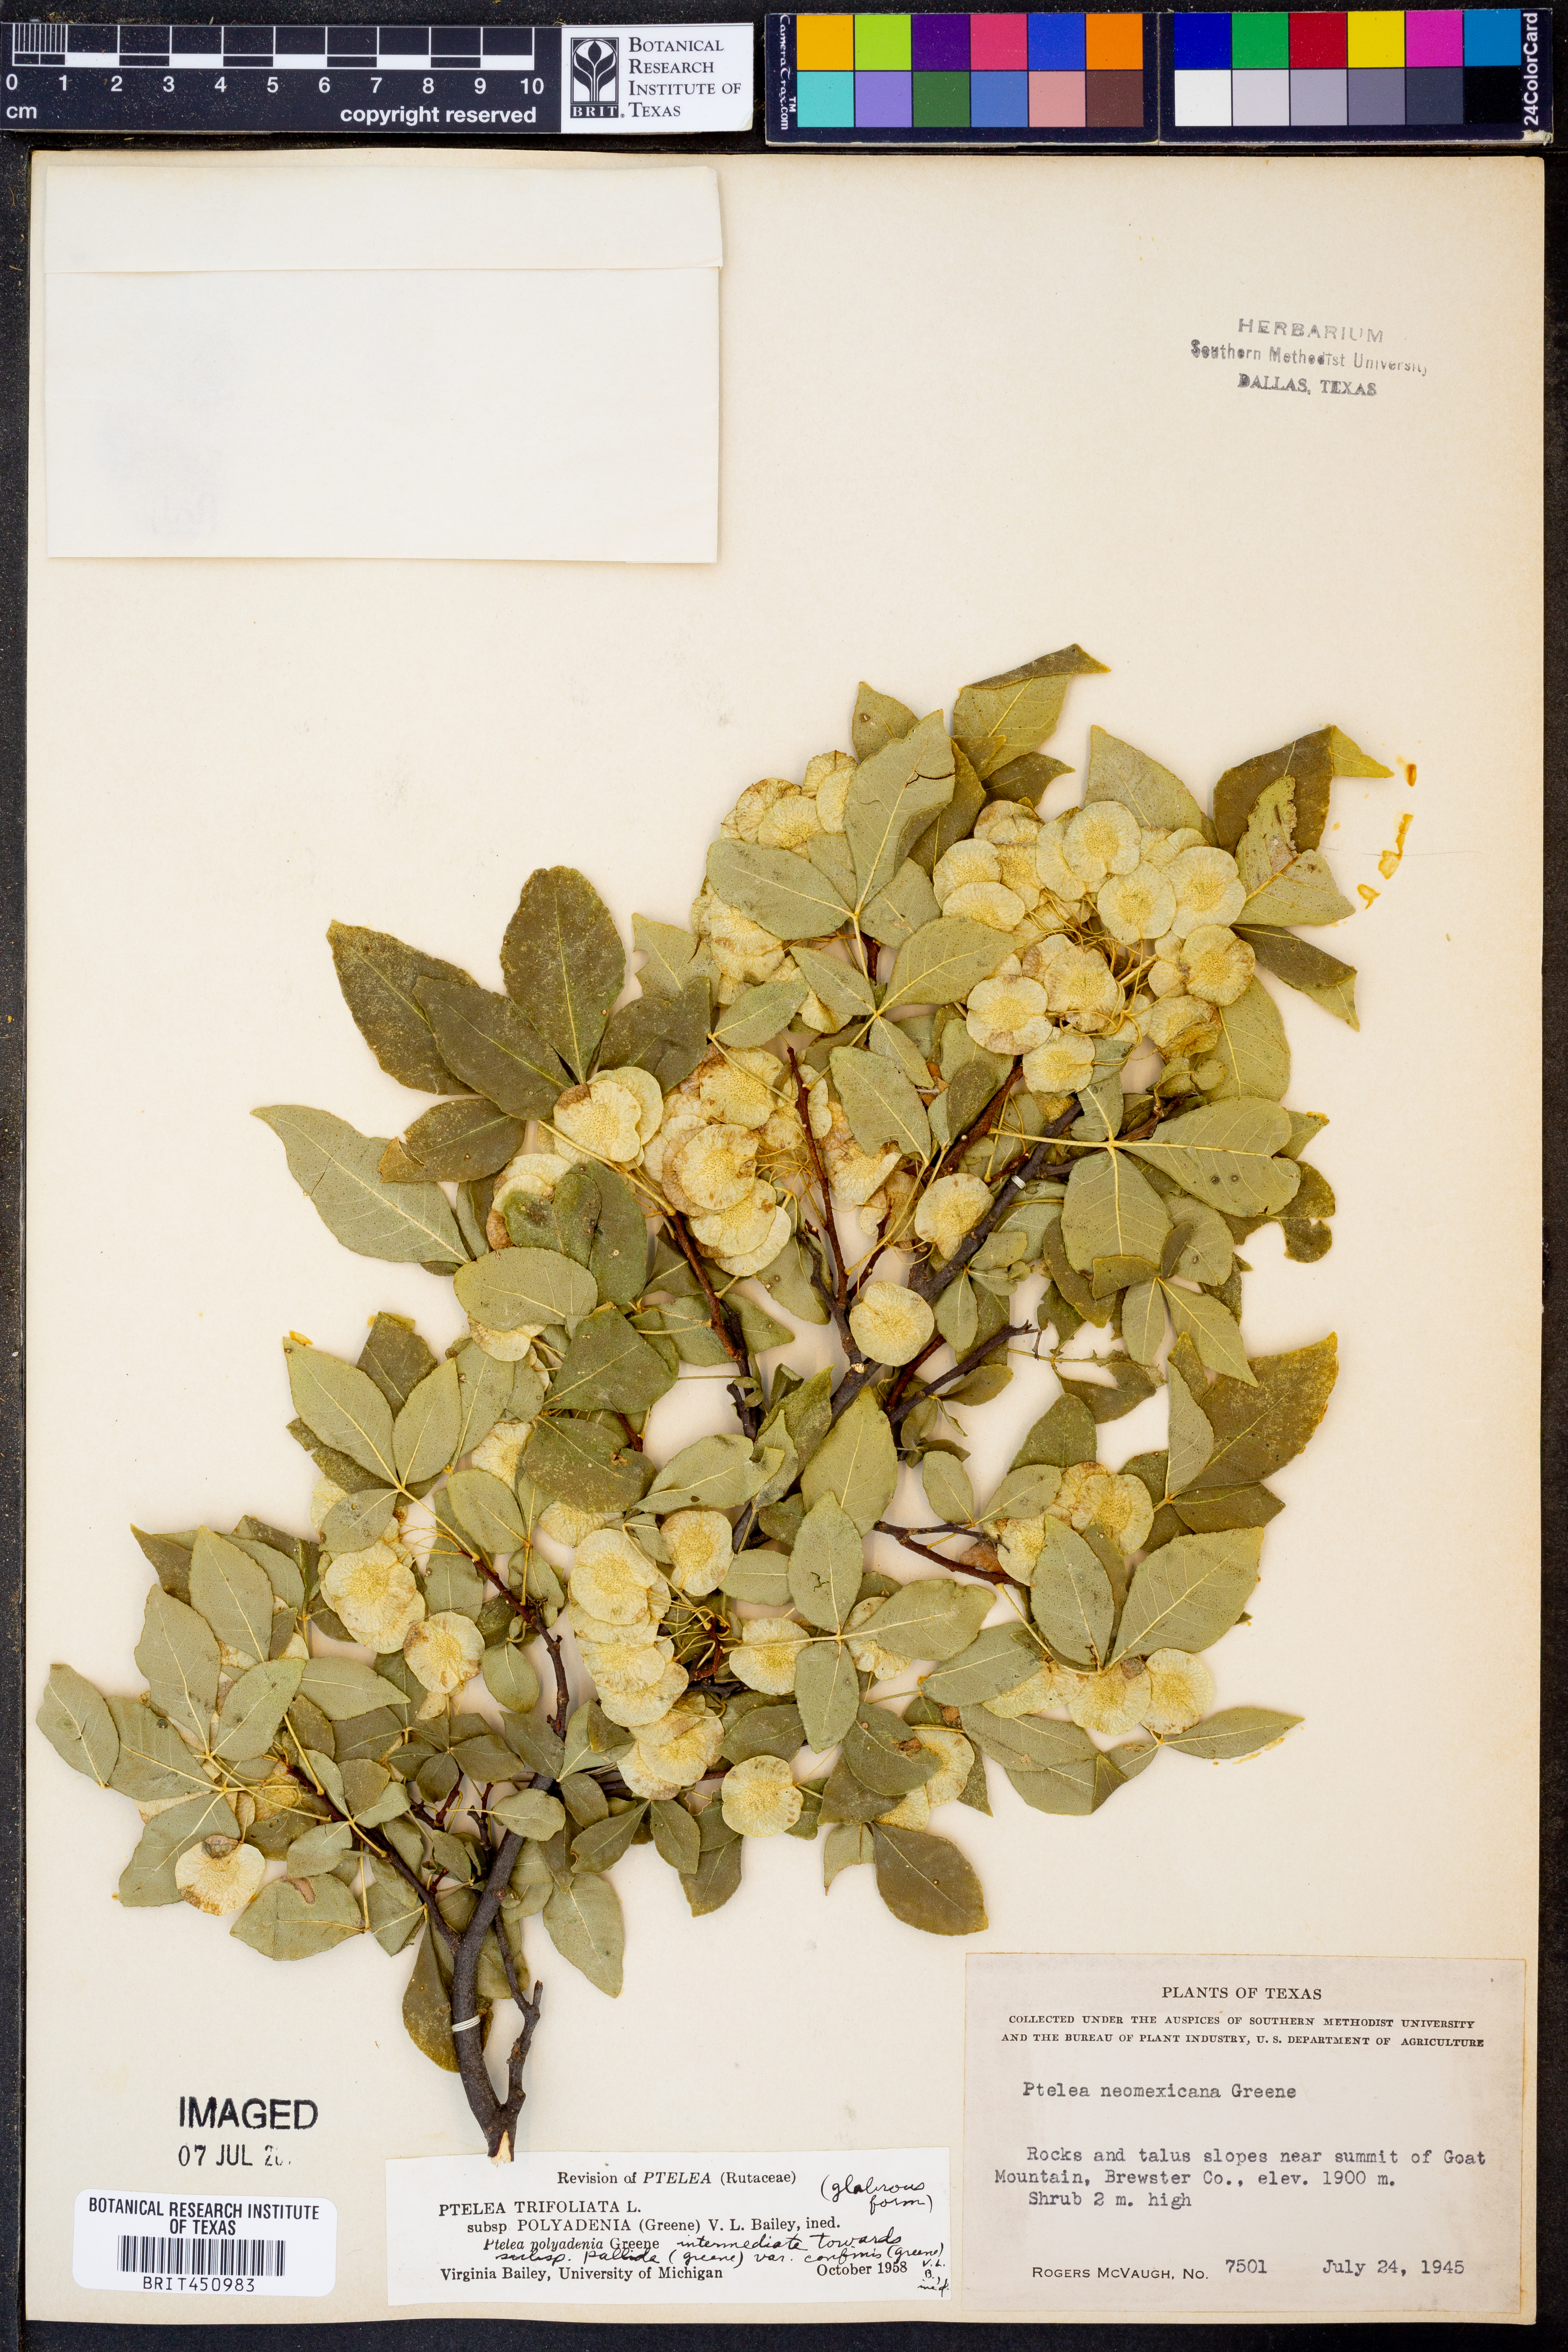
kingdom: Plantae
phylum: Tracheophyta
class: Magnoliopsida
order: Sapindales
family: Rutaceae
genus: Ptelea
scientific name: Ptelea trifoliata
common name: Common hop-tree
